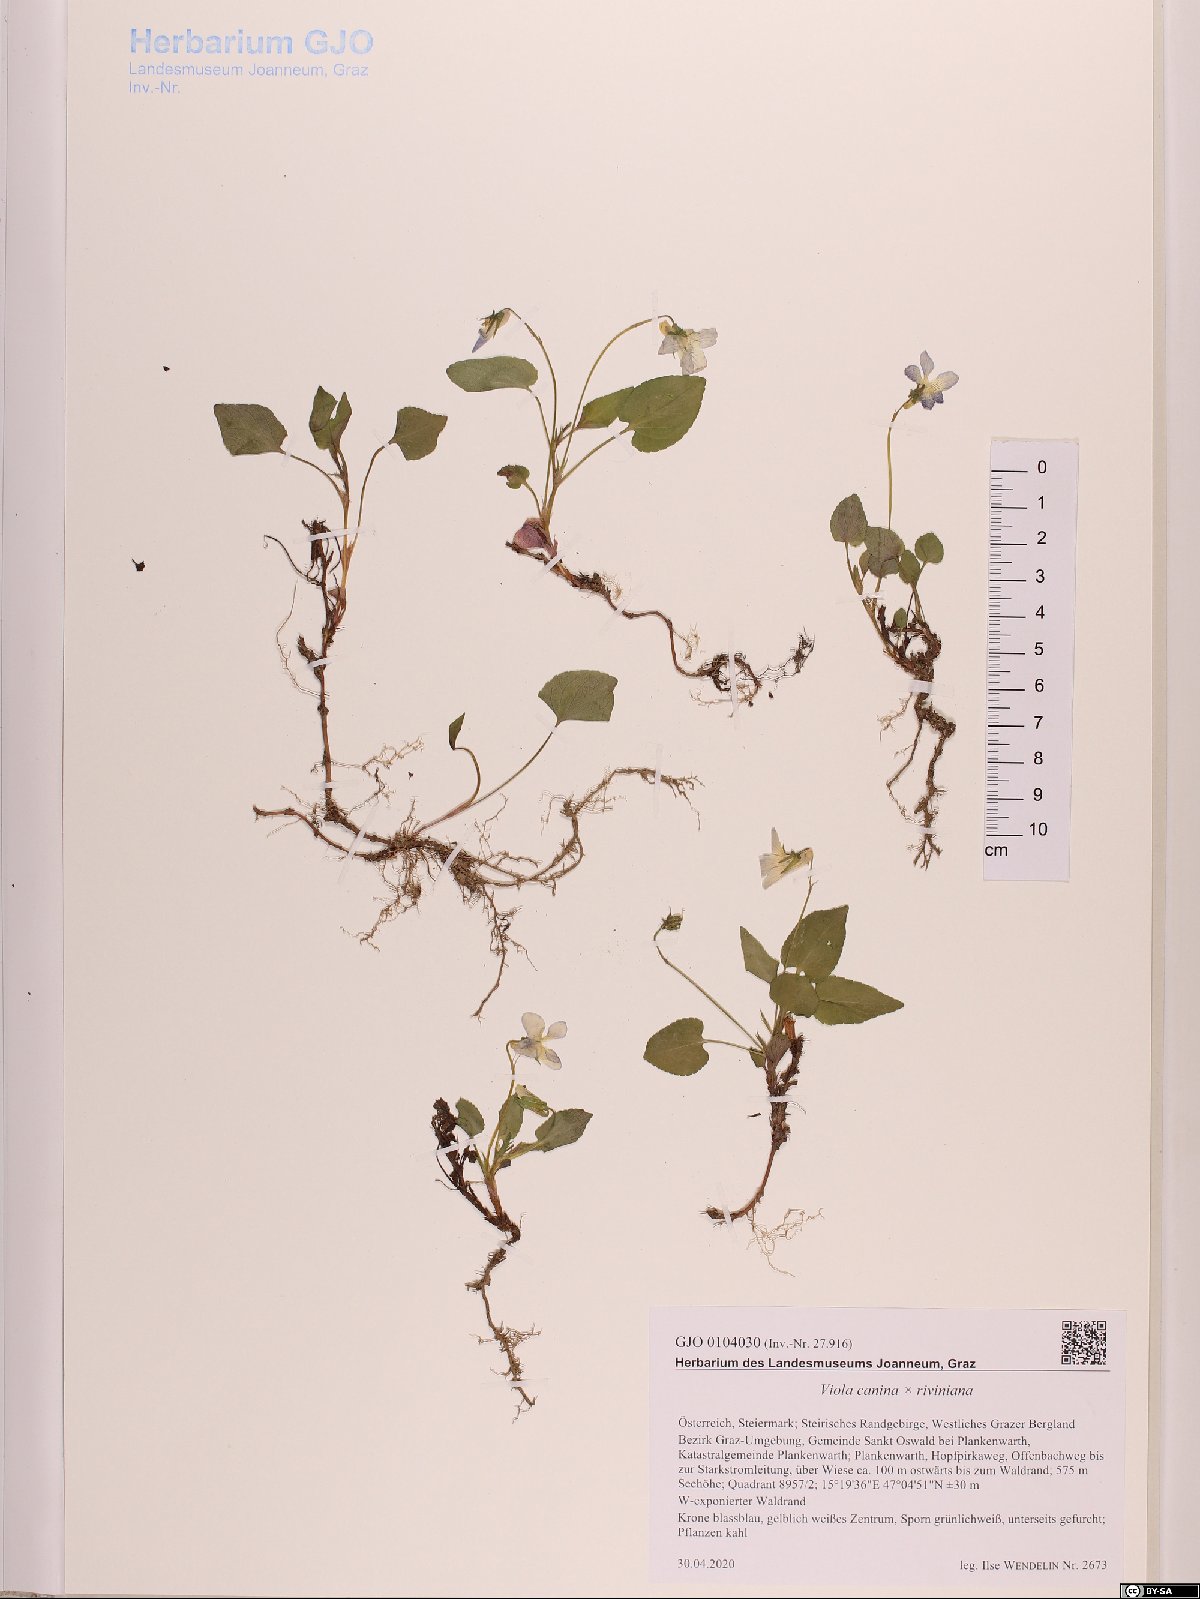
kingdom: Plantae
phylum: Tracheophyta
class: Magnoliopsida
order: Malpighiales
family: Violaceae
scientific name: Violaceae
